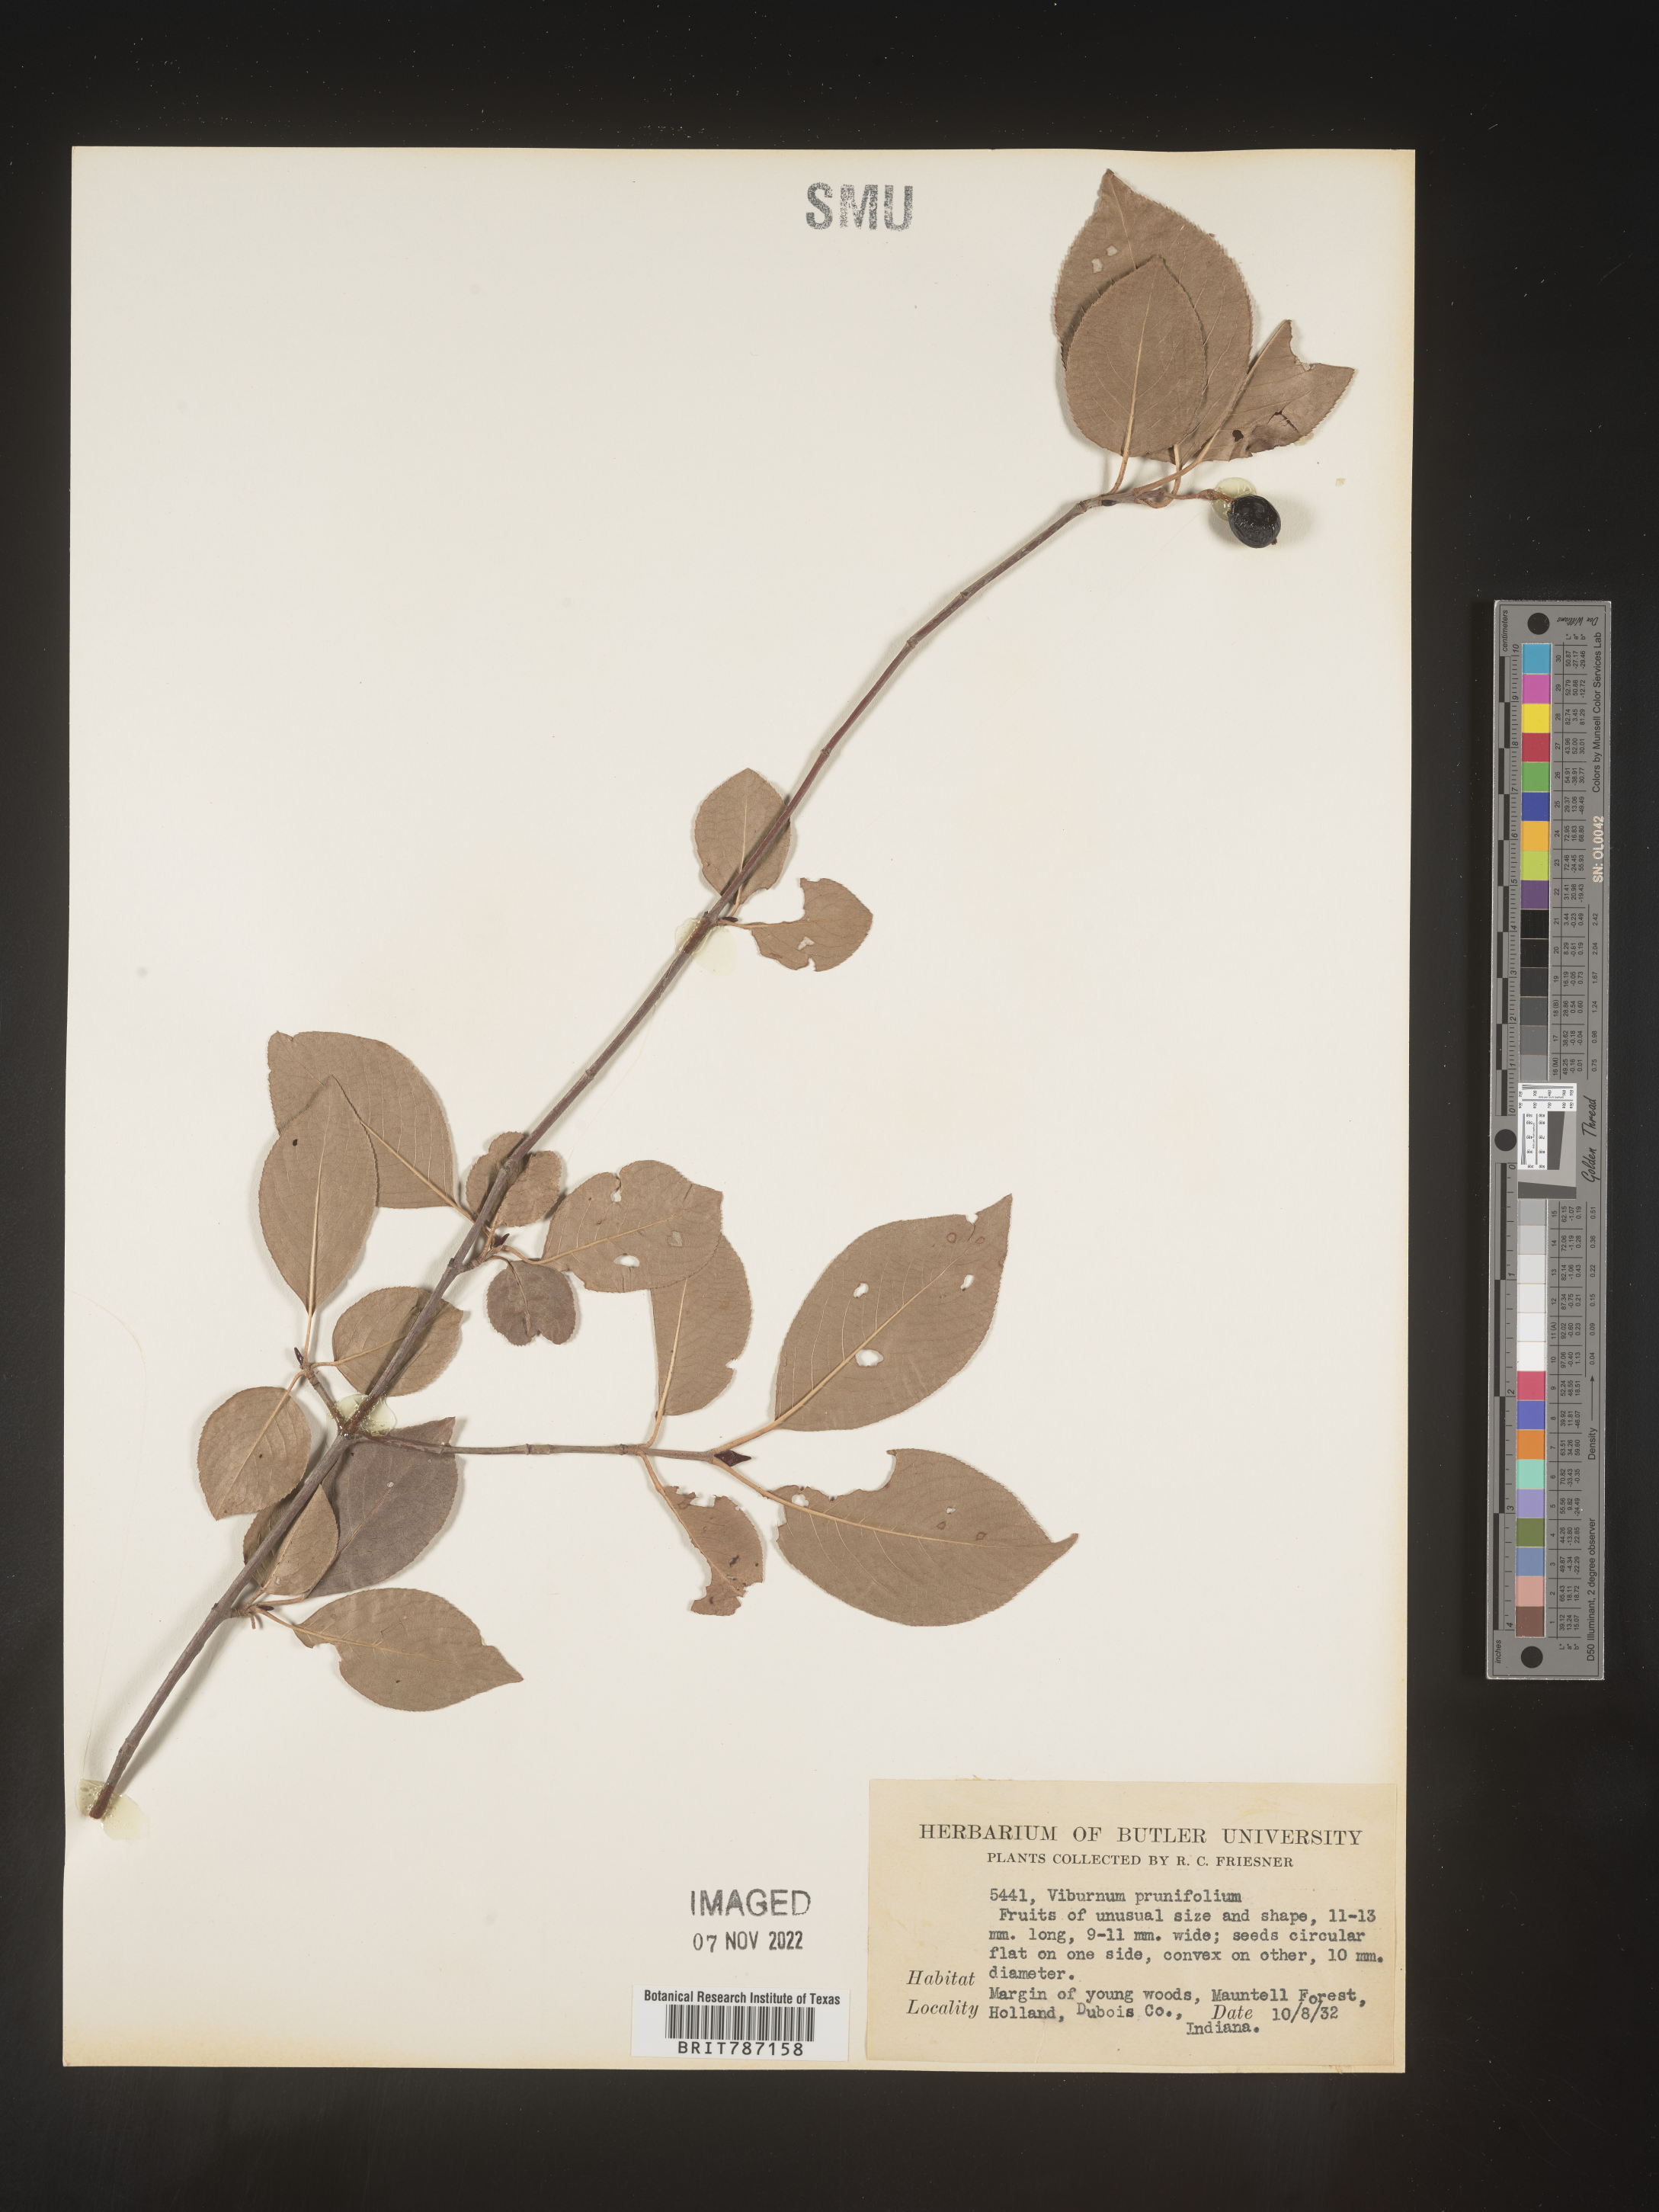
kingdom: Plantae
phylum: Tracheophyta
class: Magnoliopsida
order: Dipsacales
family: Viburnaceae
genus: Viburnum
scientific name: Viburnum prunifolium
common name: Black haw
